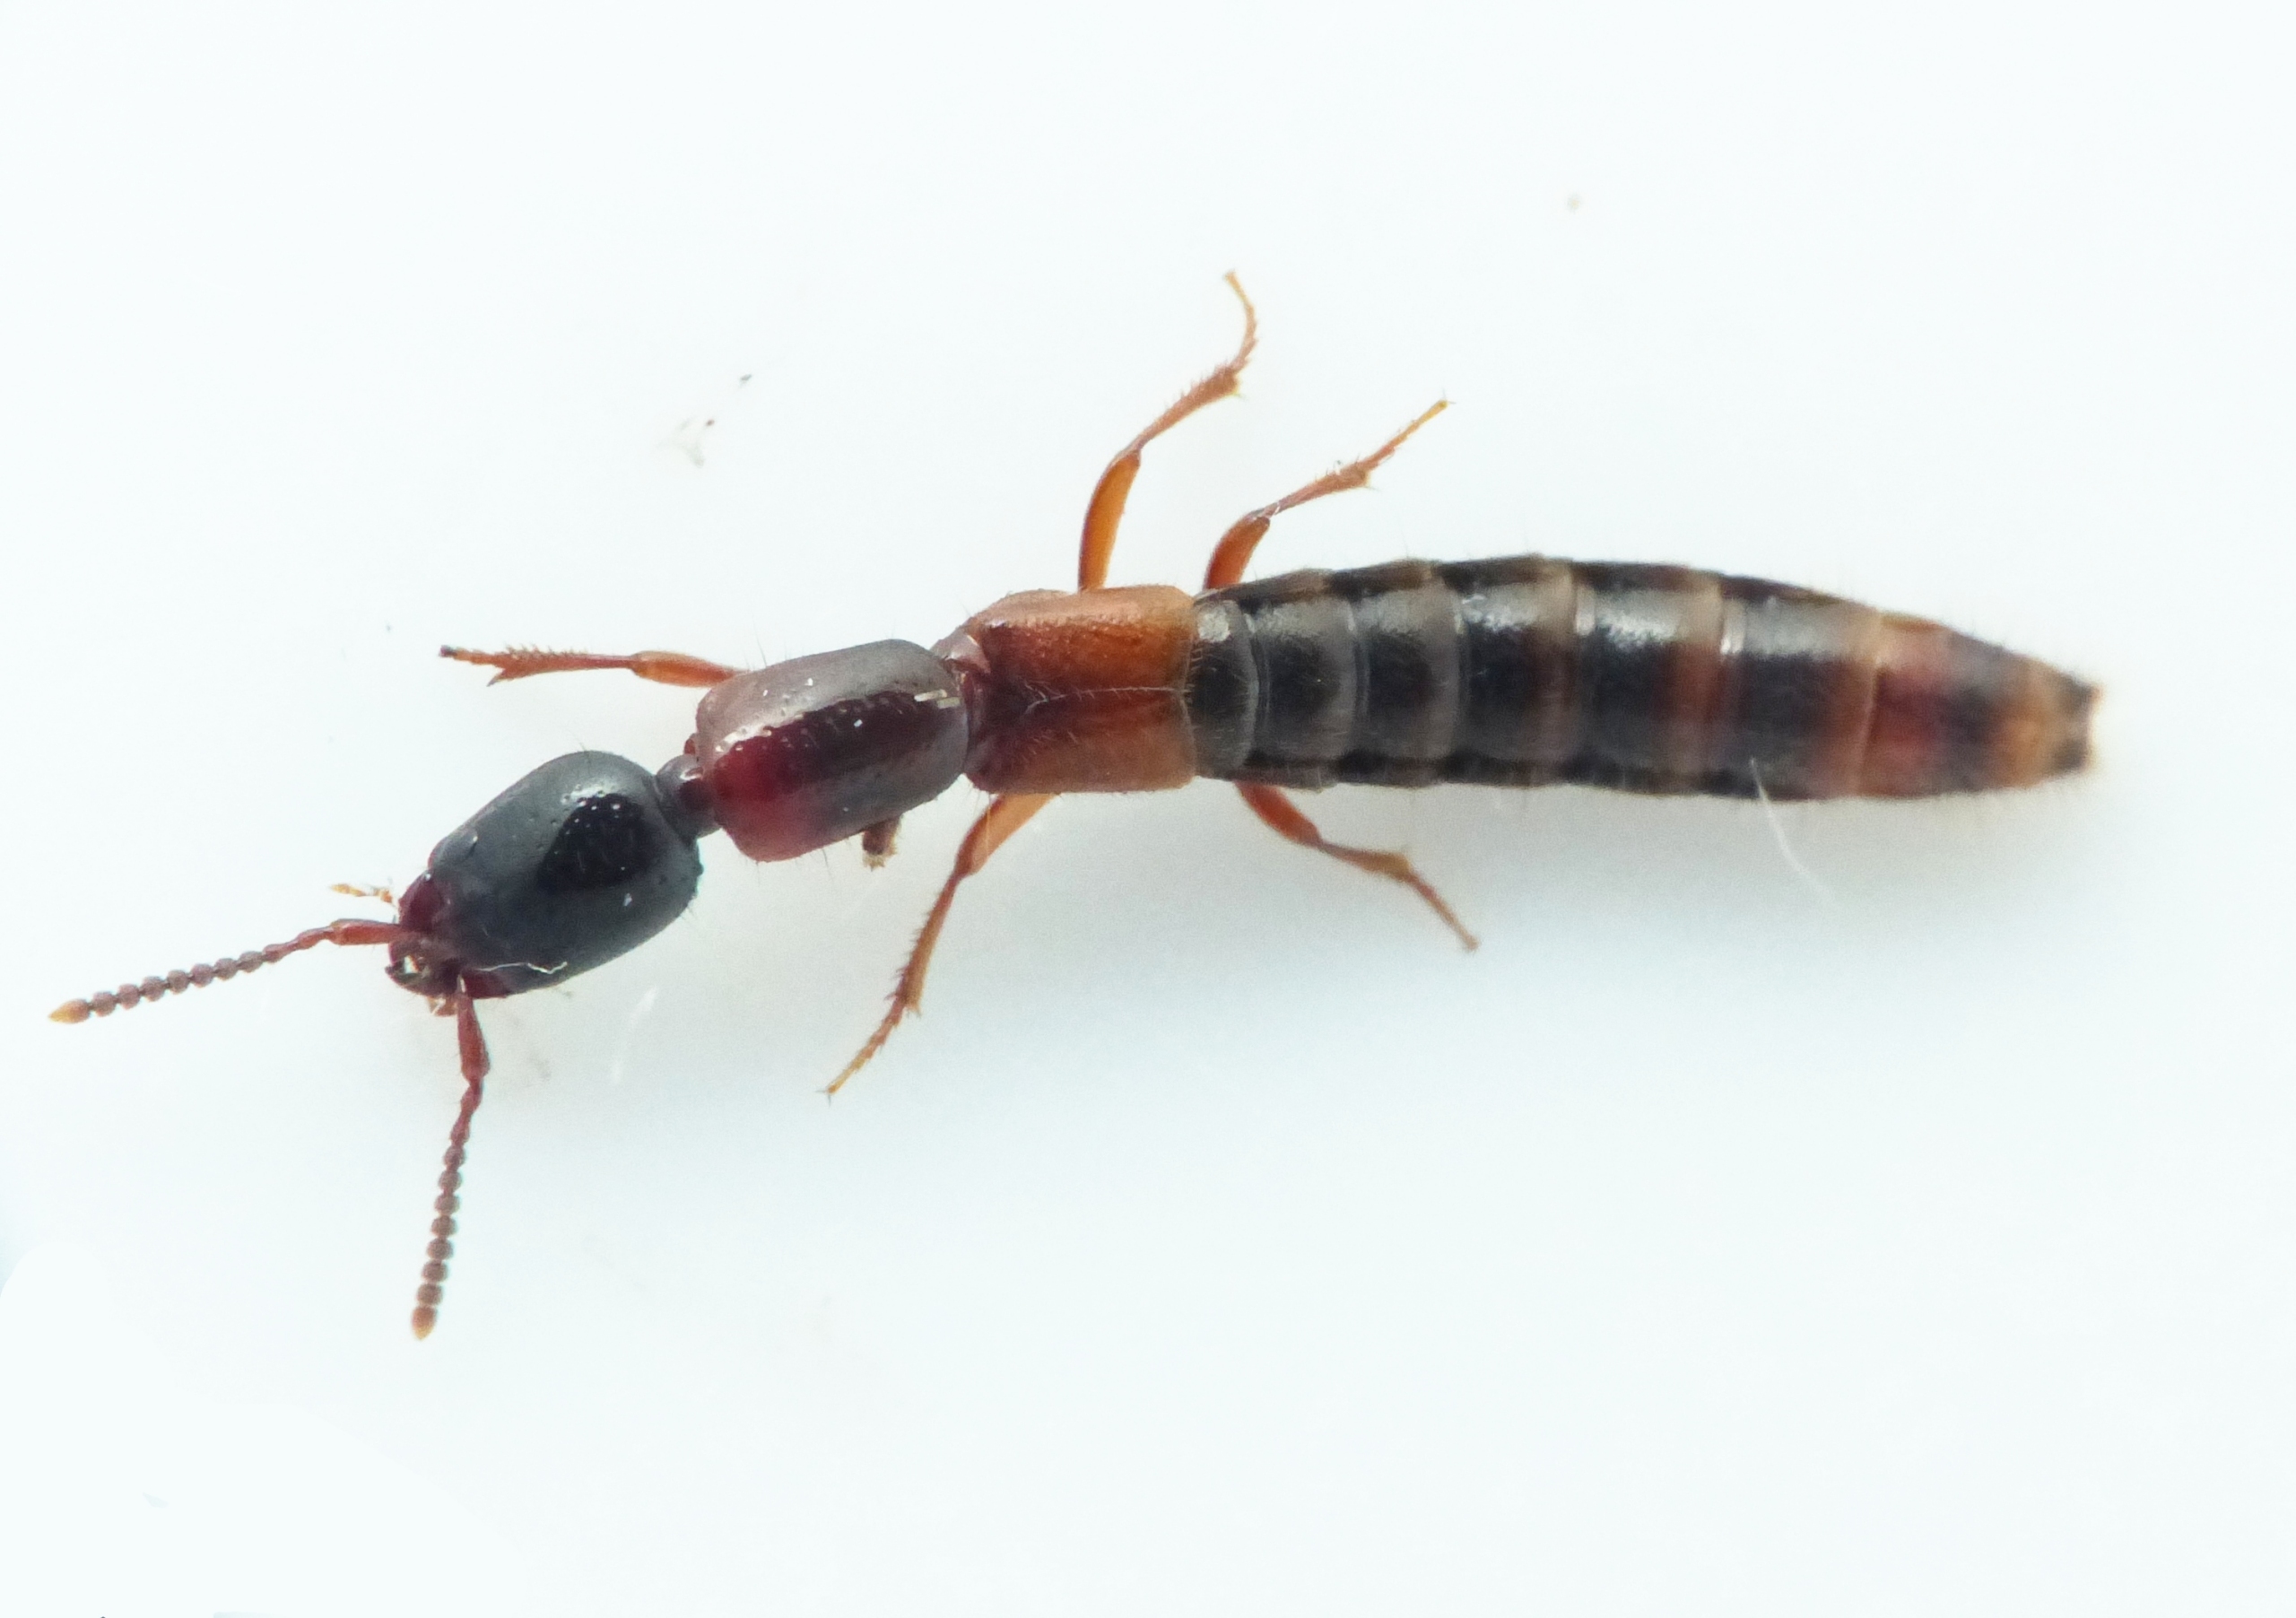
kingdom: Animalia
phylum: Arthropoda
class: Insecta
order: Coleoptera
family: Staphylinidae
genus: Xantholinus
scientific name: Xantholinus tricolor
